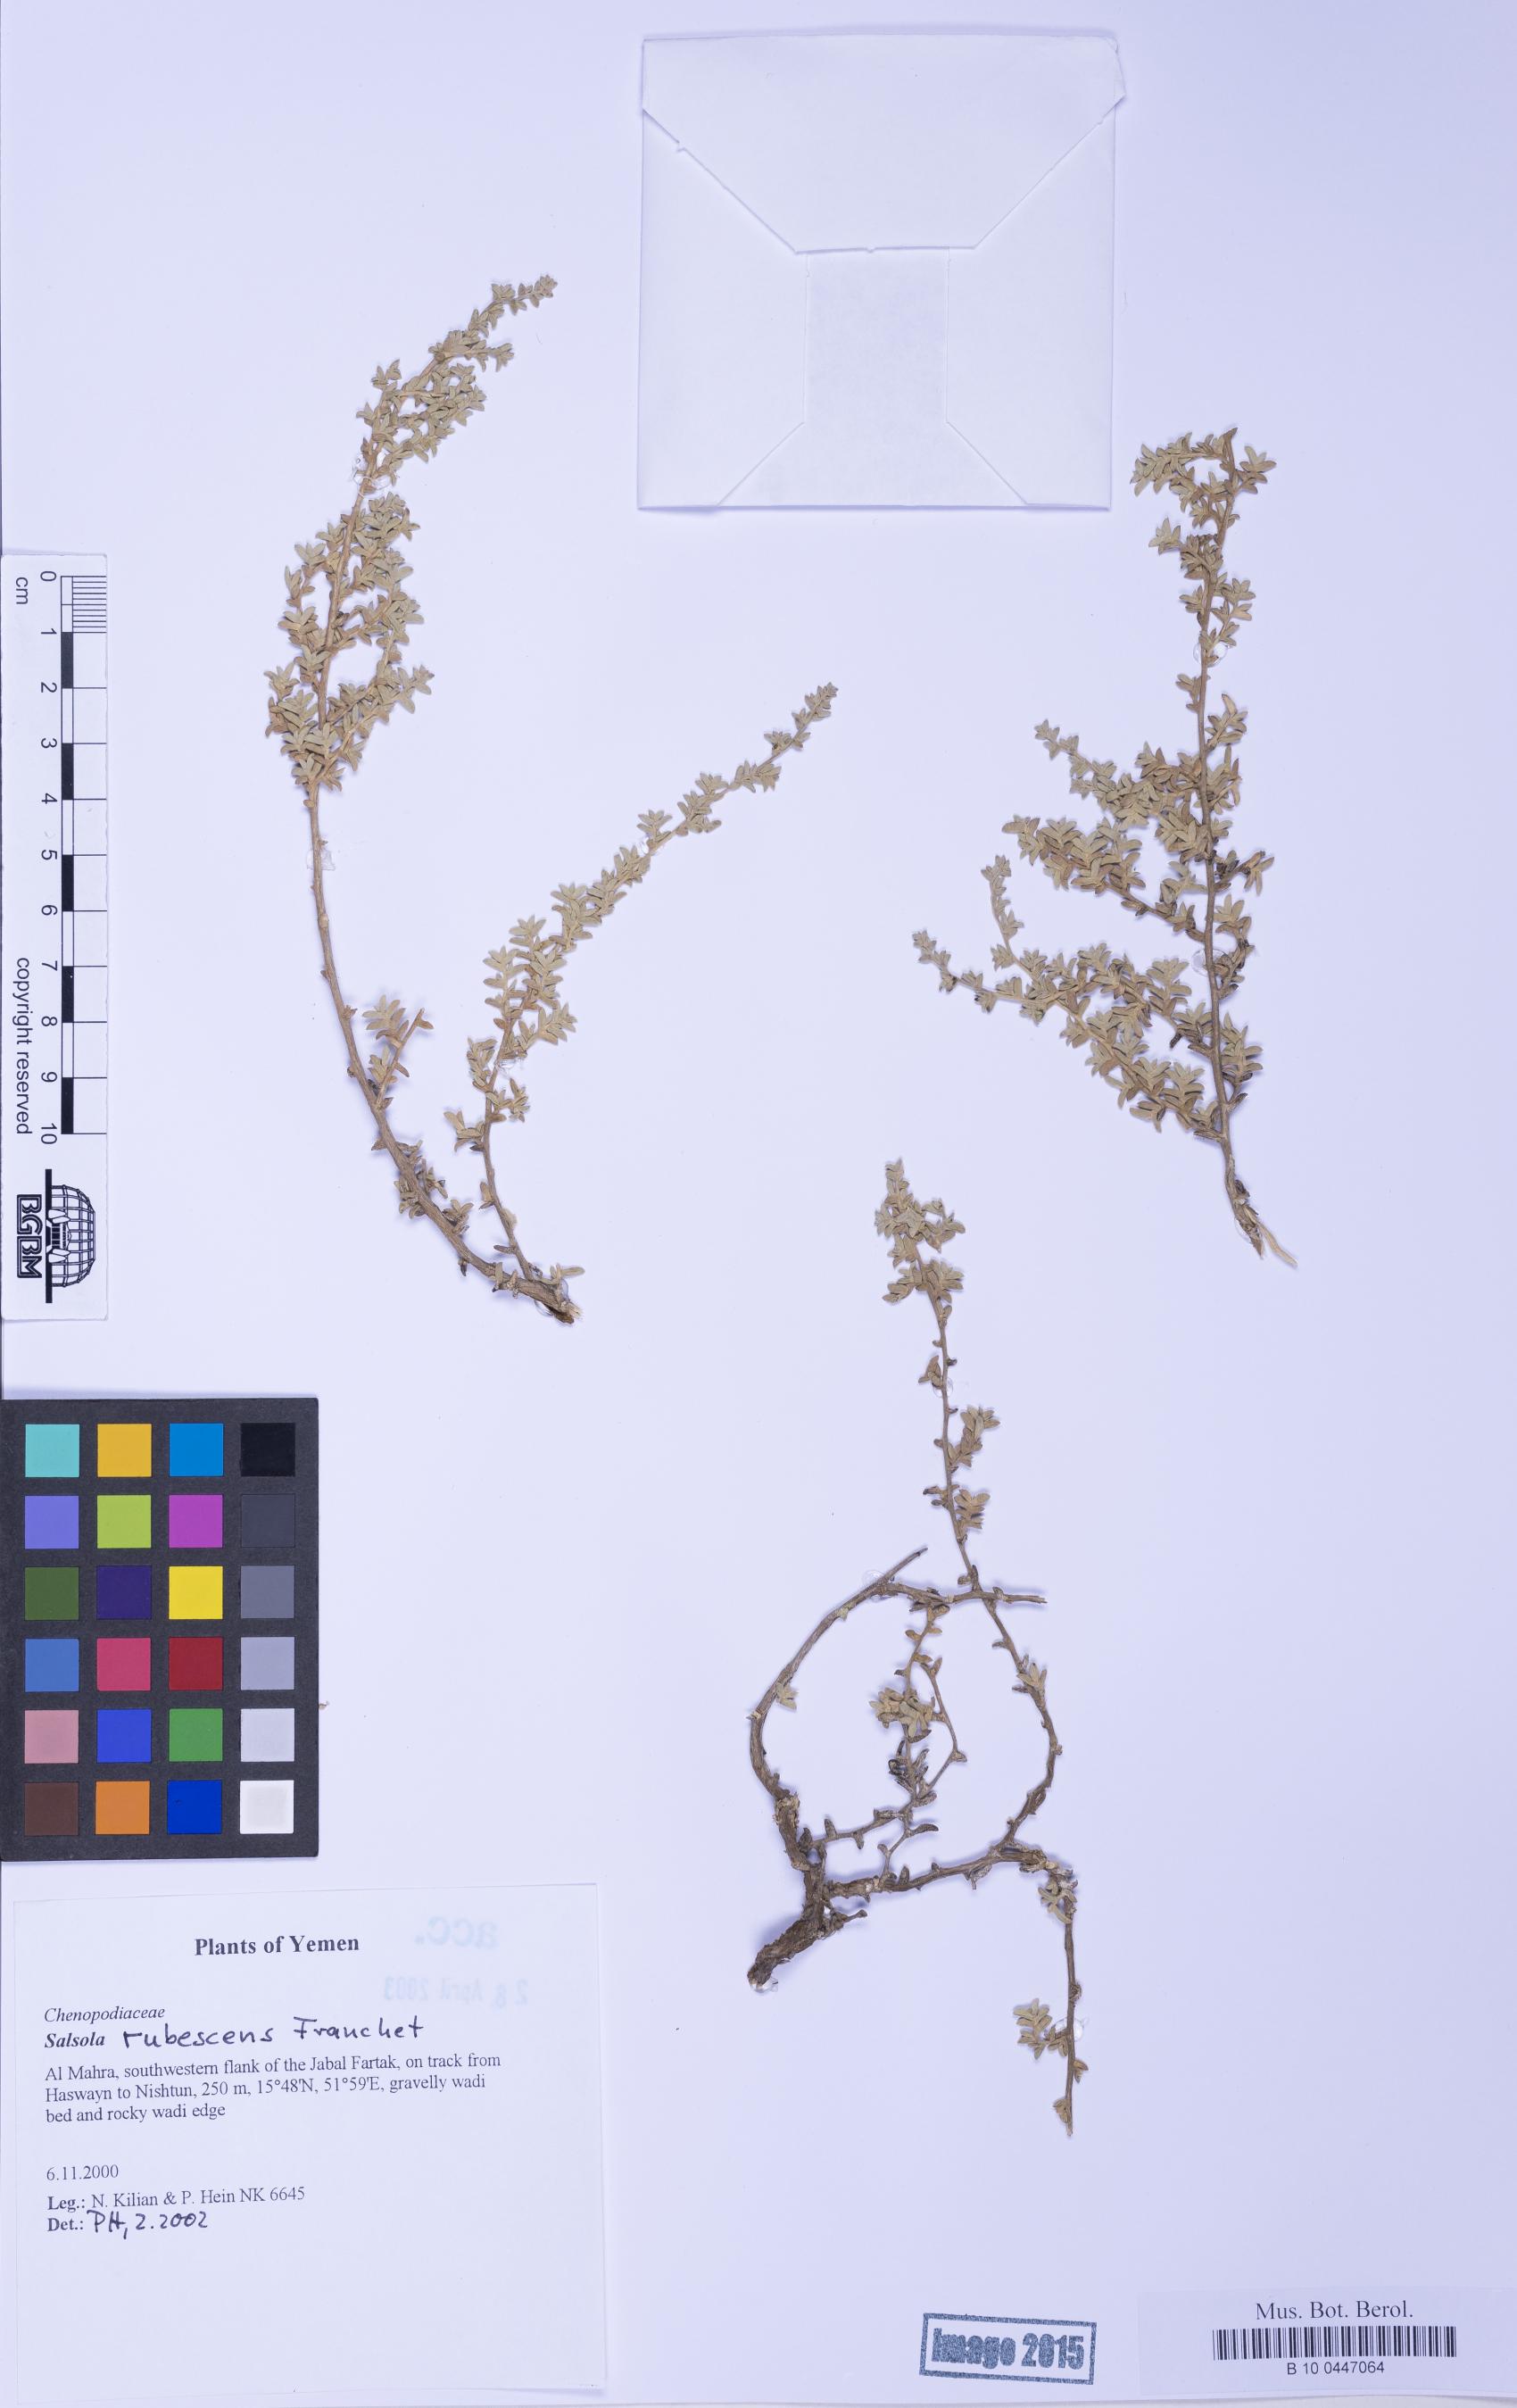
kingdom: Plantae
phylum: Tracheophyta
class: Magnoliopsida
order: Caryophyllales
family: Amaranthaceae
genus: Kaviria
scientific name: Kaviria rubescens
